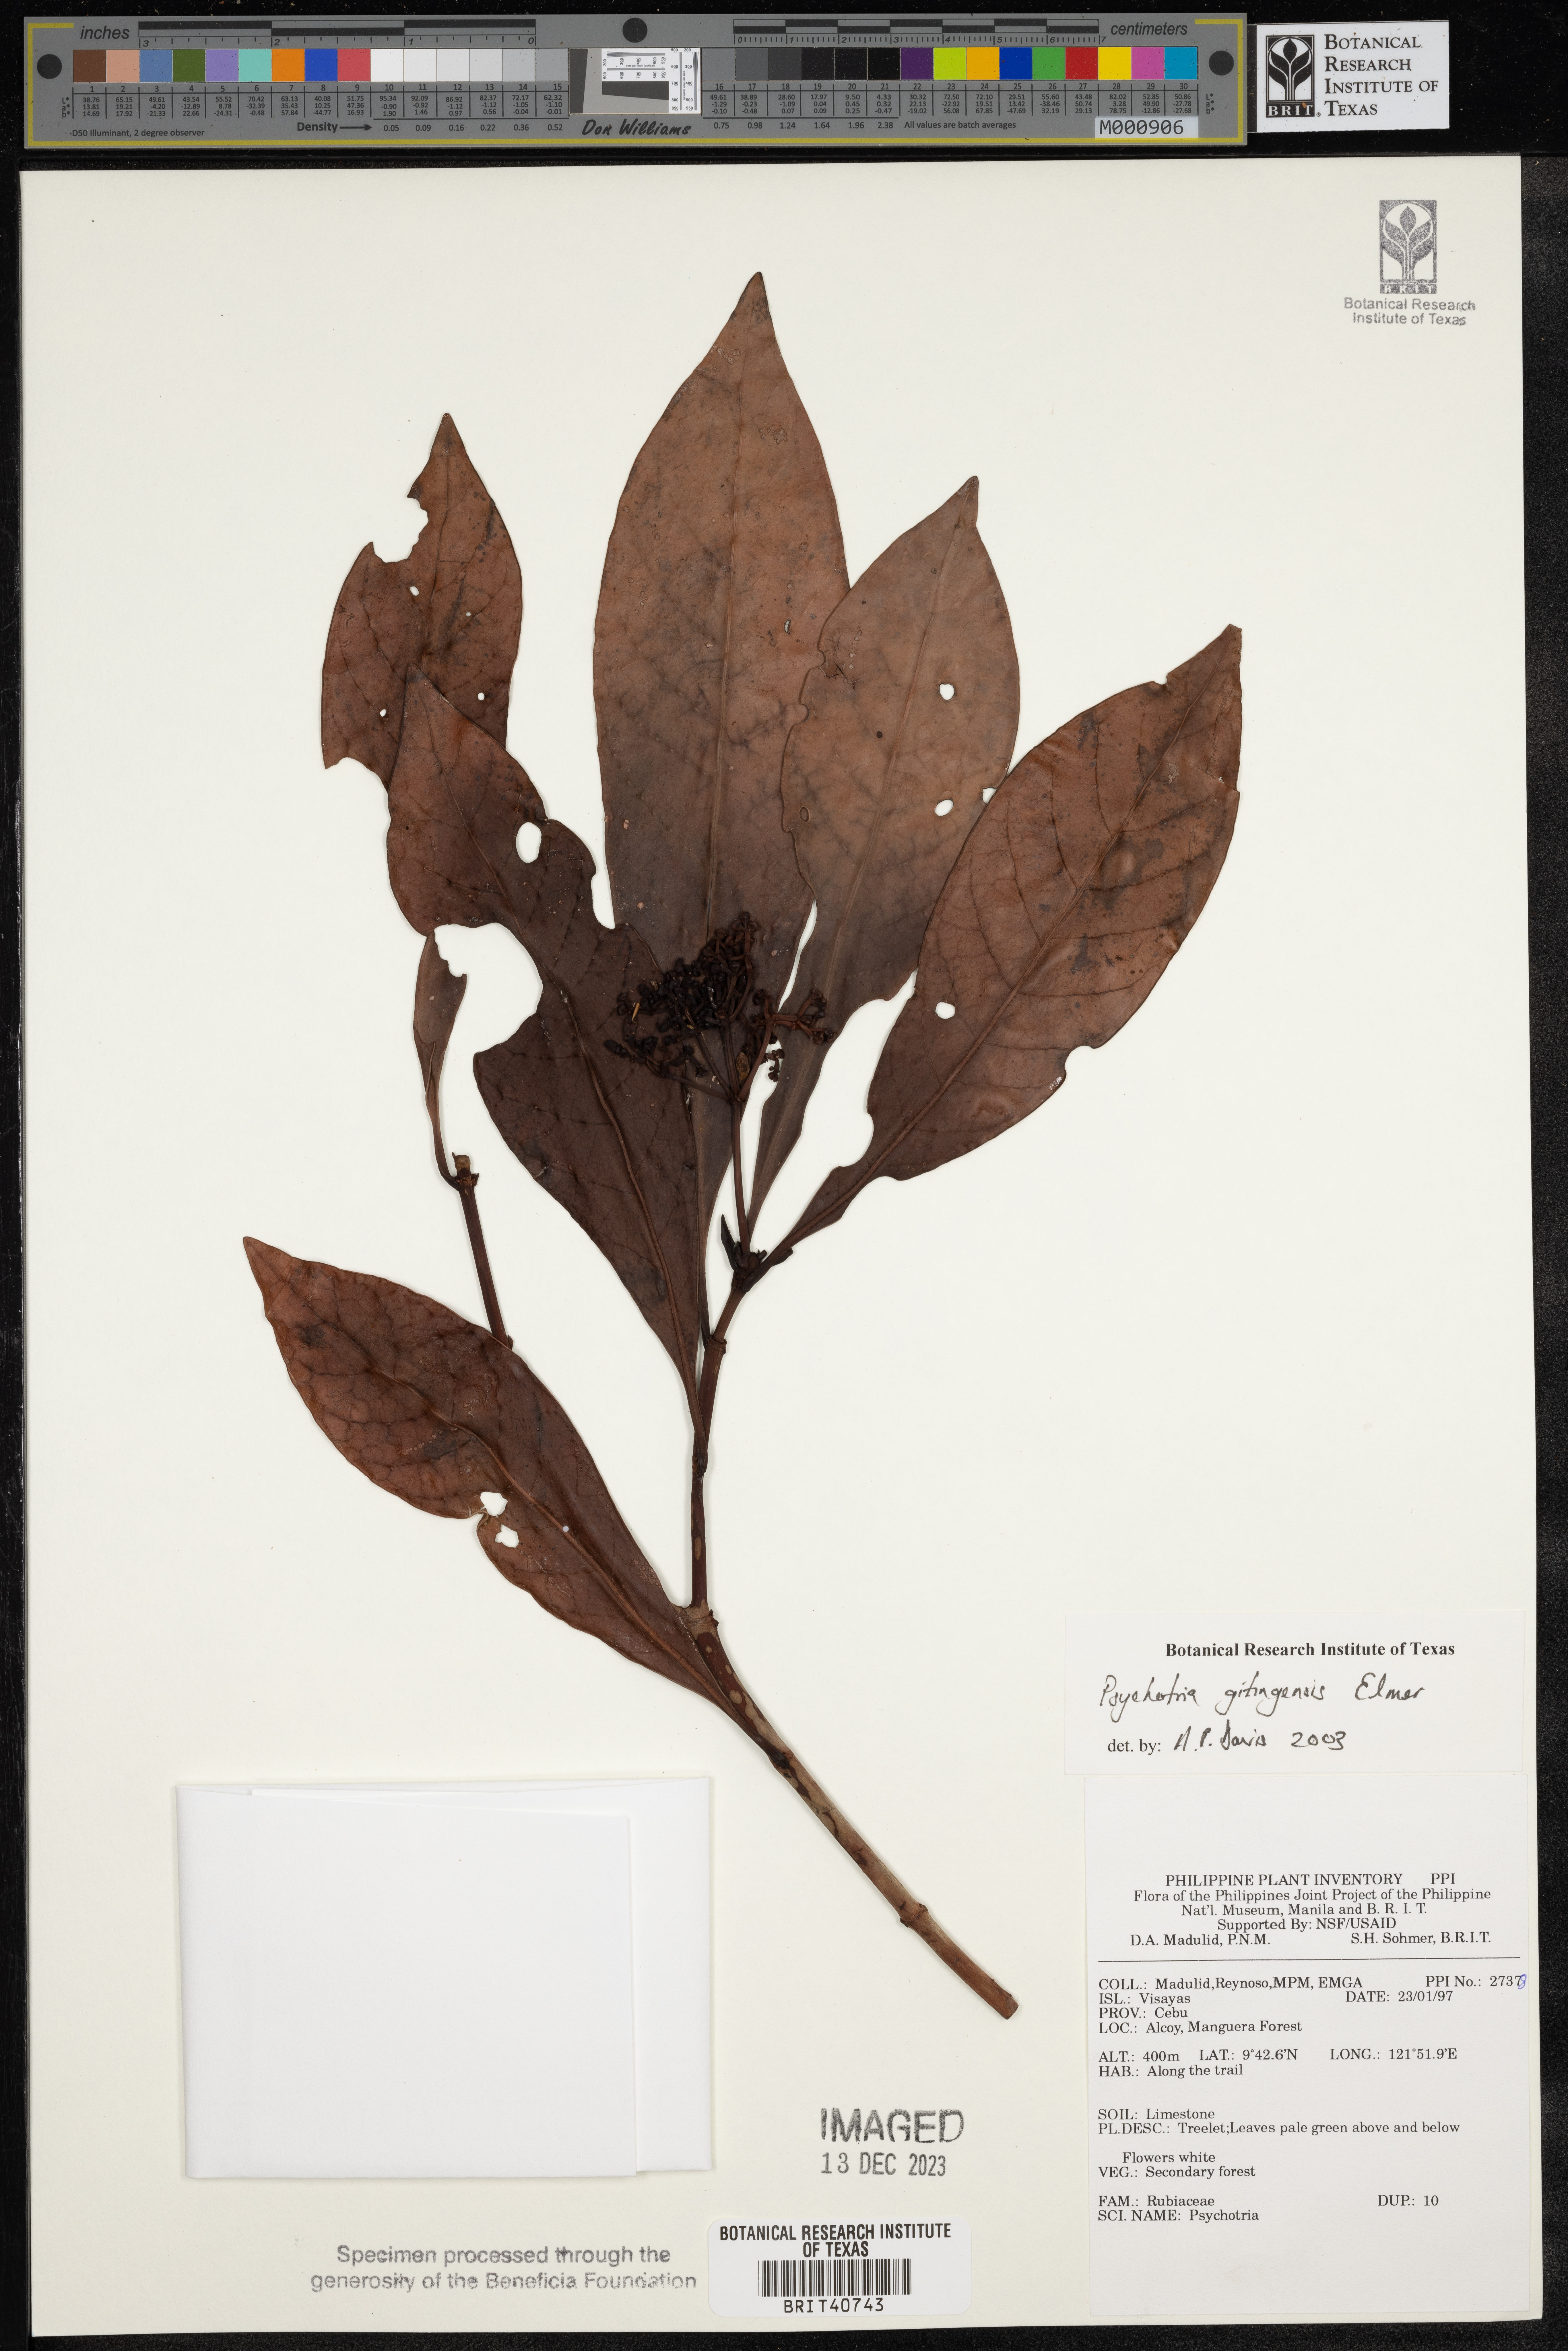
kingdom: Plantae
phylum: Tracheophyta
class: Magnoliopsida
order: Gentianales
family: Rubiaceae
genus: Psychotria
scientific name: Psychotria gitingensis
